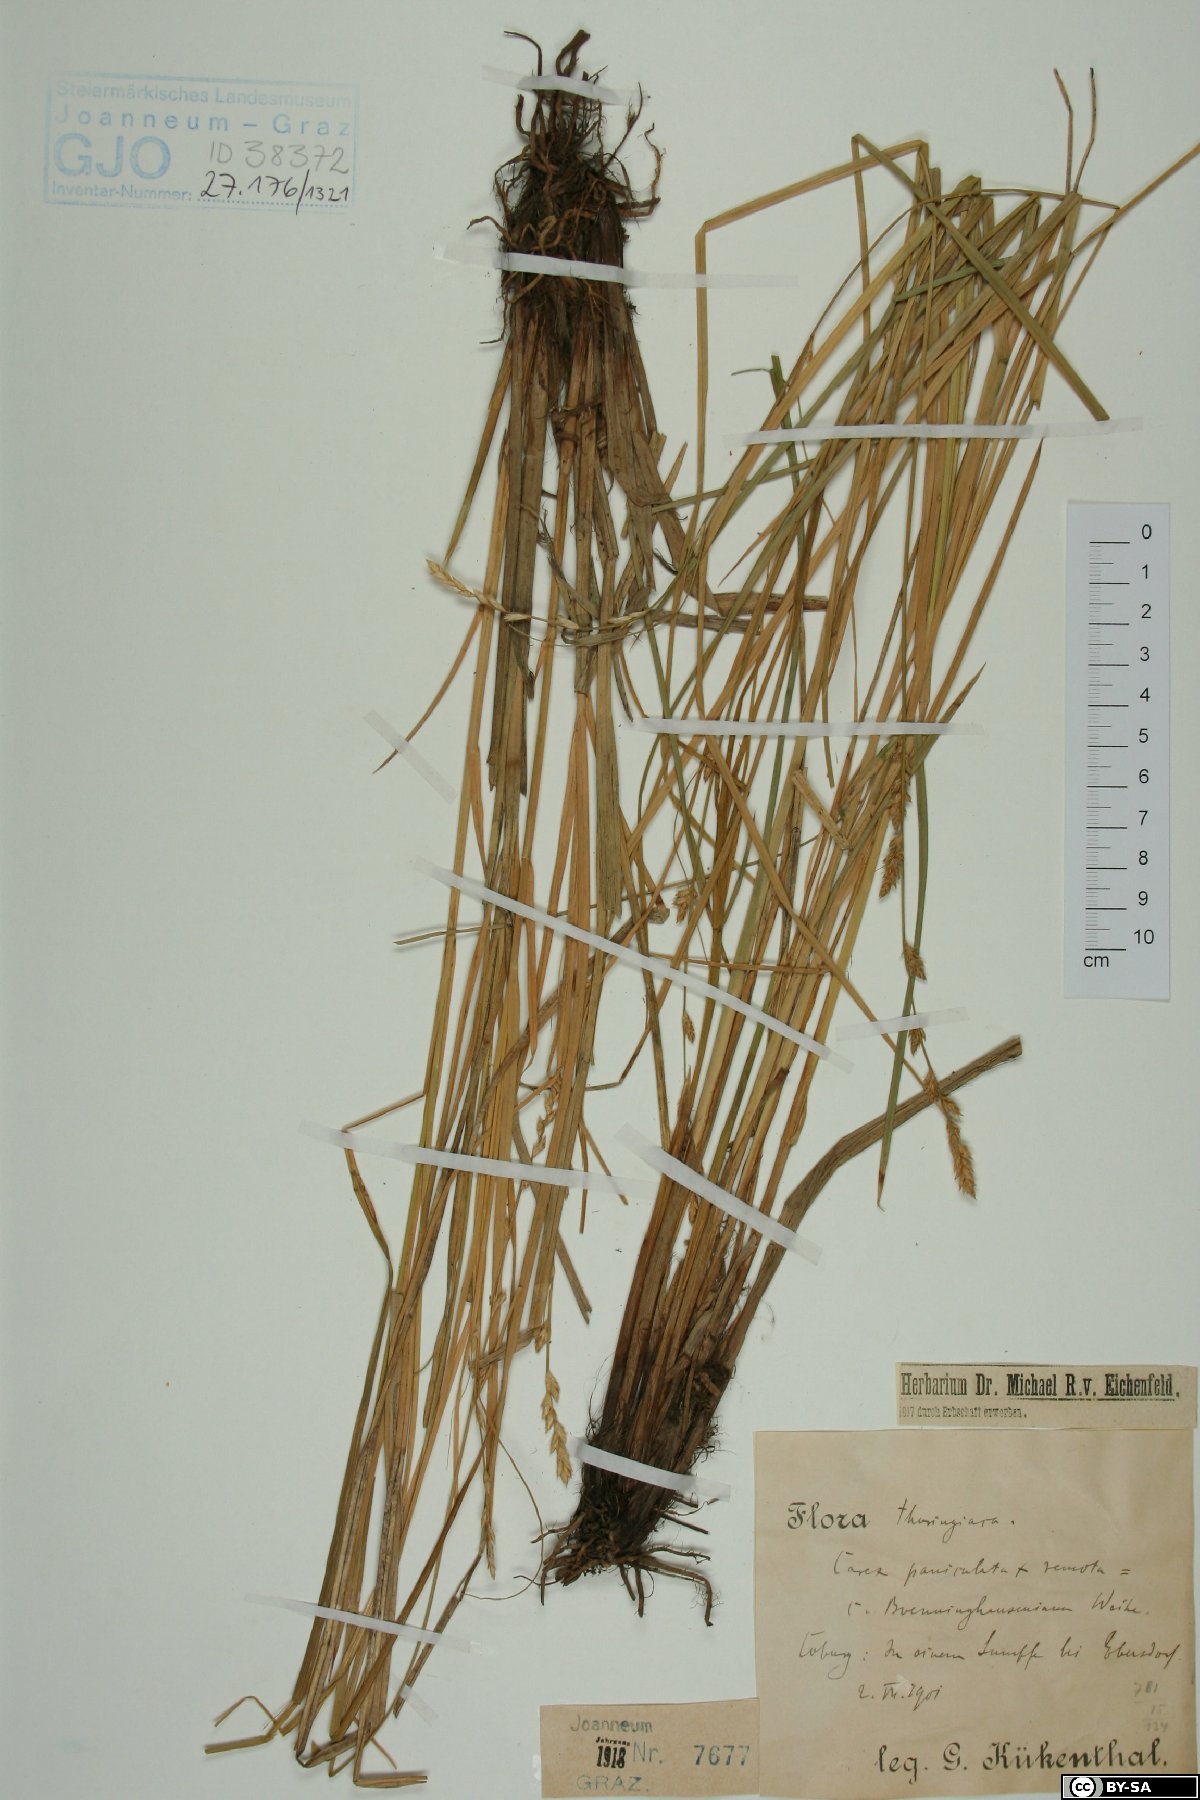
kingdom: Plantae
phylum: Tracheophyta
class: Liliopsida
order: Poales
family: Cyperaceae
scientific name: Cyperaceae
